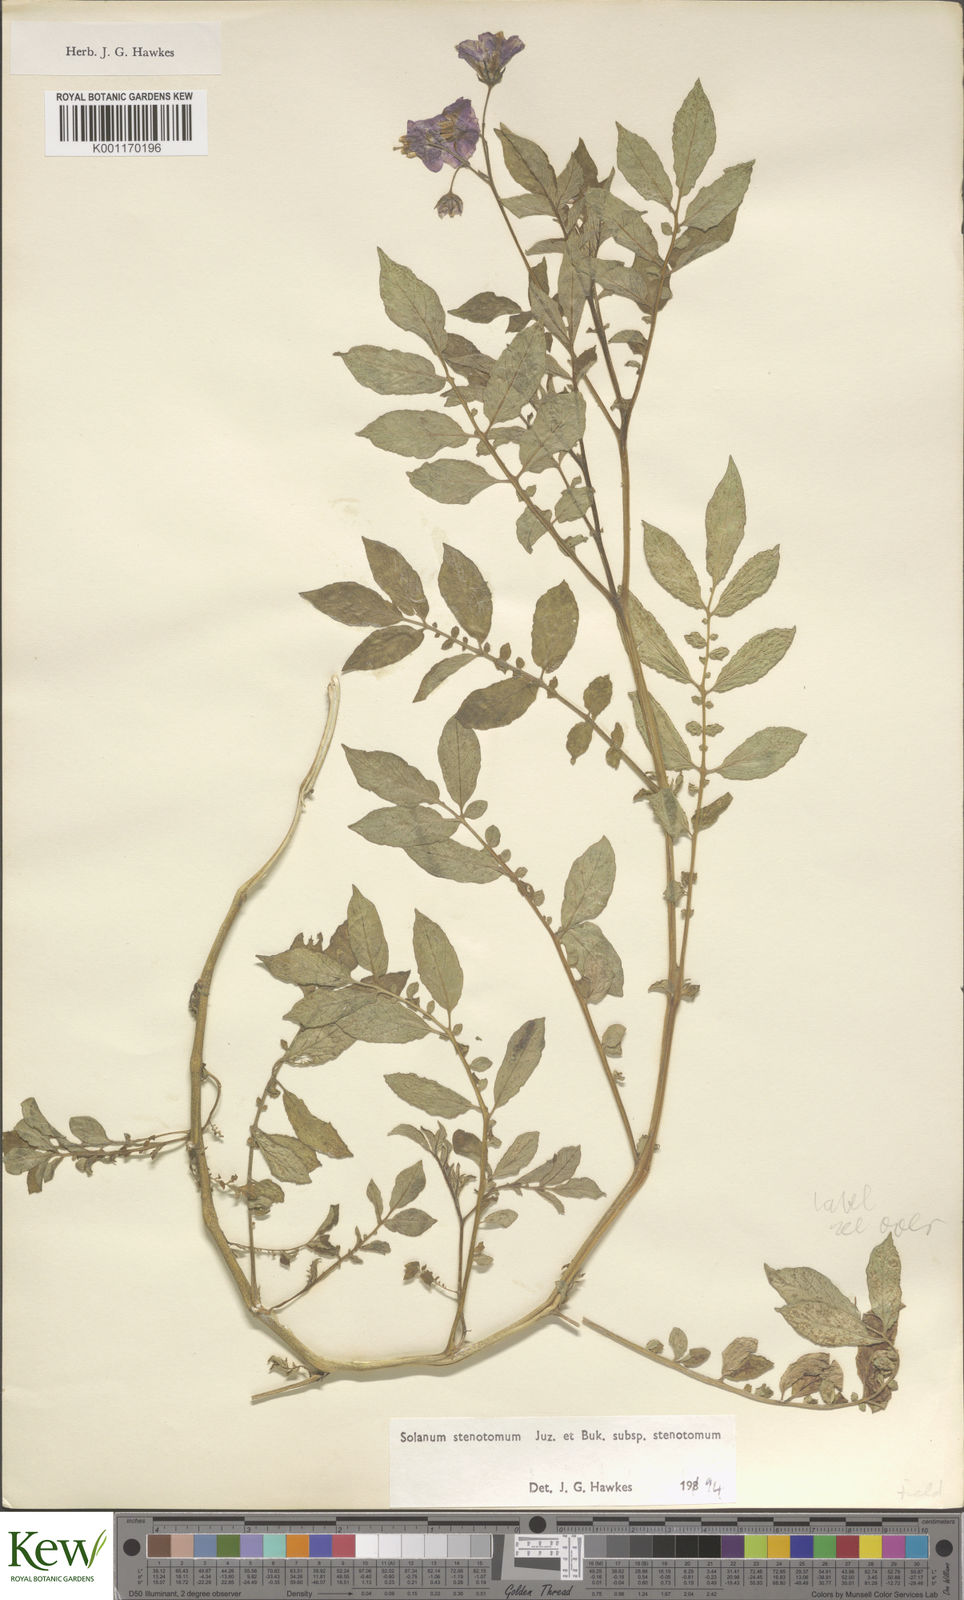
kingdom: Plantae
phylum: Tracheophyta
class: Magnoliopsida
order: Solanales
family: Solanaceae
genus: Solanum
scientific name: Solanum tuberosum
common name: Potato
